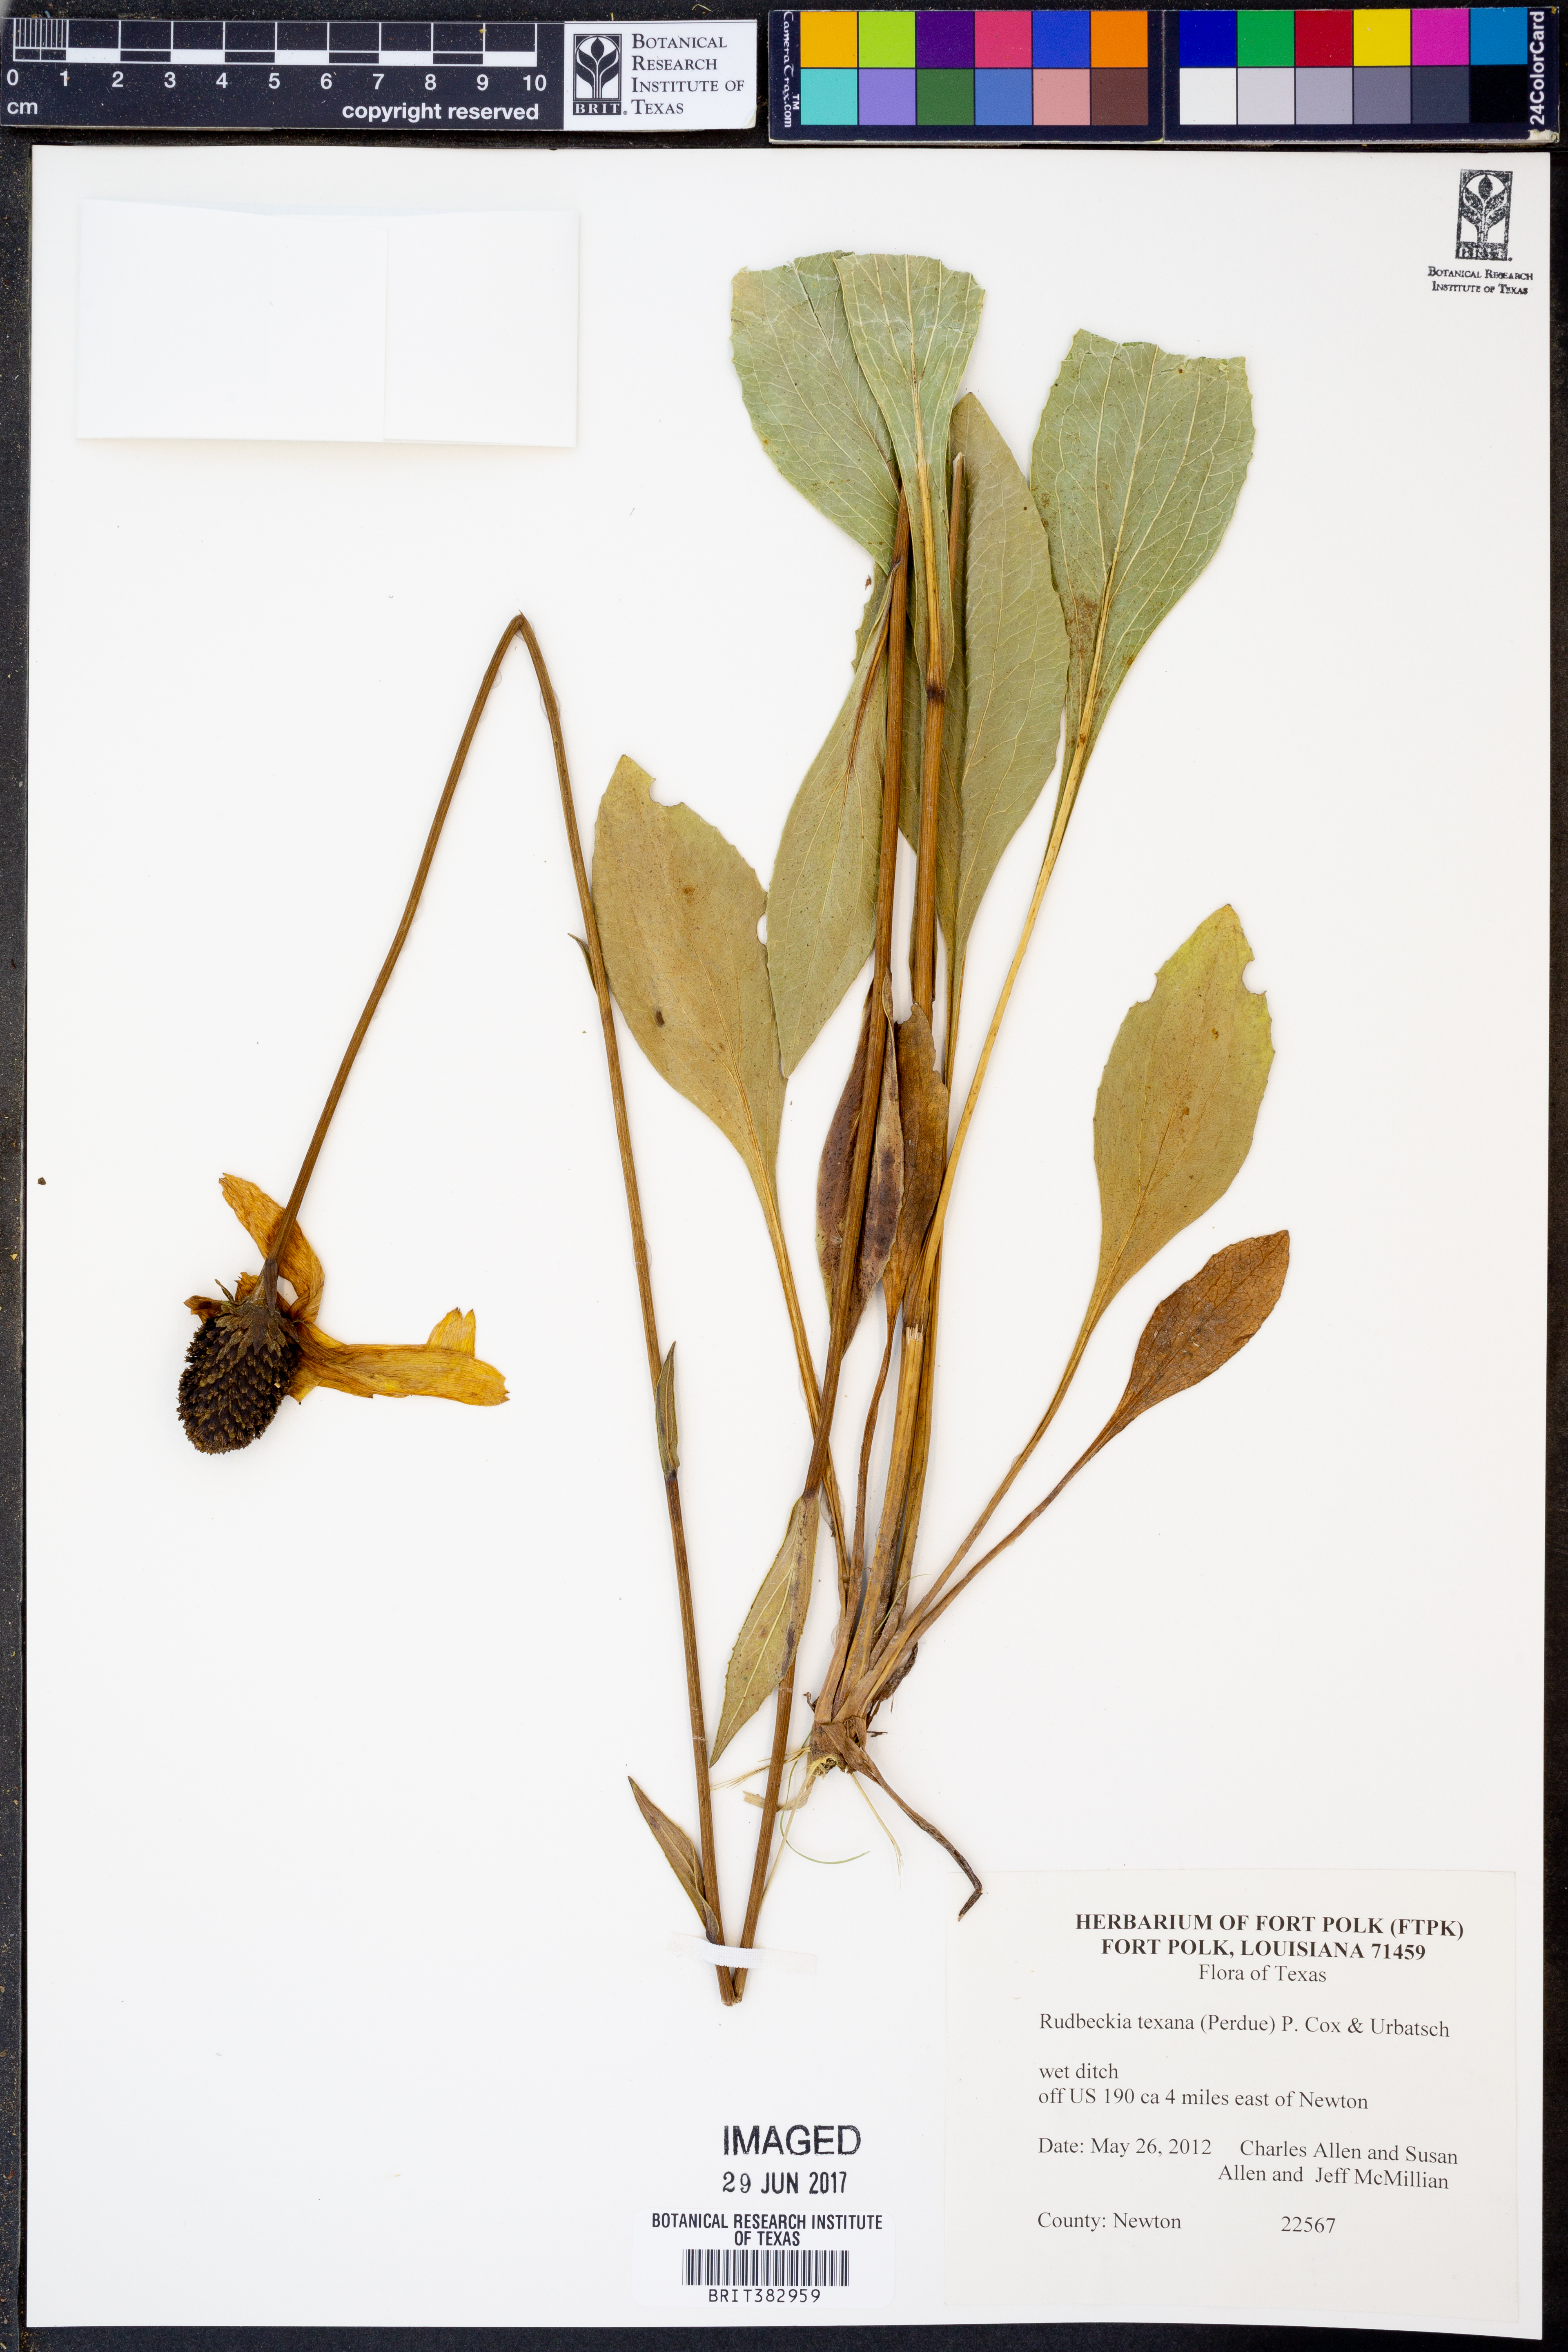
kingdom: Plantae
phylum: Tracheophyta
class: Magnoliopsida
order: Asterales
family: Asteraceae
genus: Rudbeckia
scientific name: Rudbeckia texana
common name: Texas coneflower
